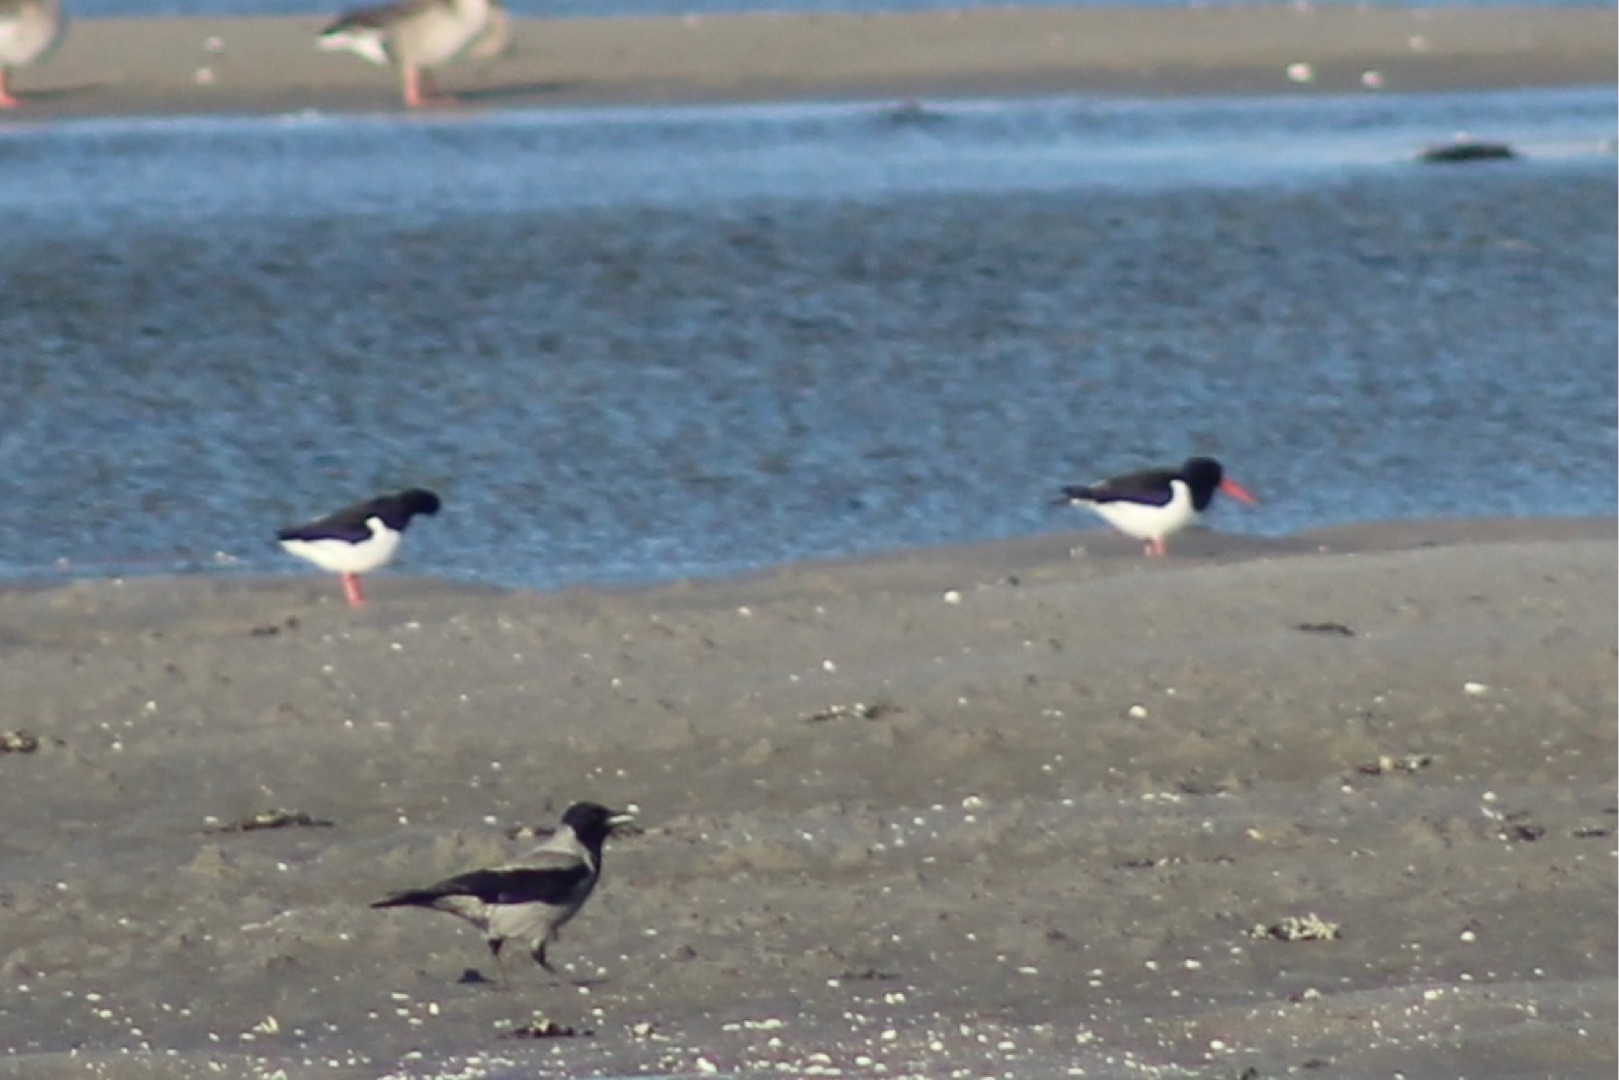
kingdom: Animalia
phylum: Chordata
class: Aves
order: Charadriiformes
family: Haematopodidae
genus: Haematopus
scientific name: Haematopus ostralegus
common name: Strandskade
